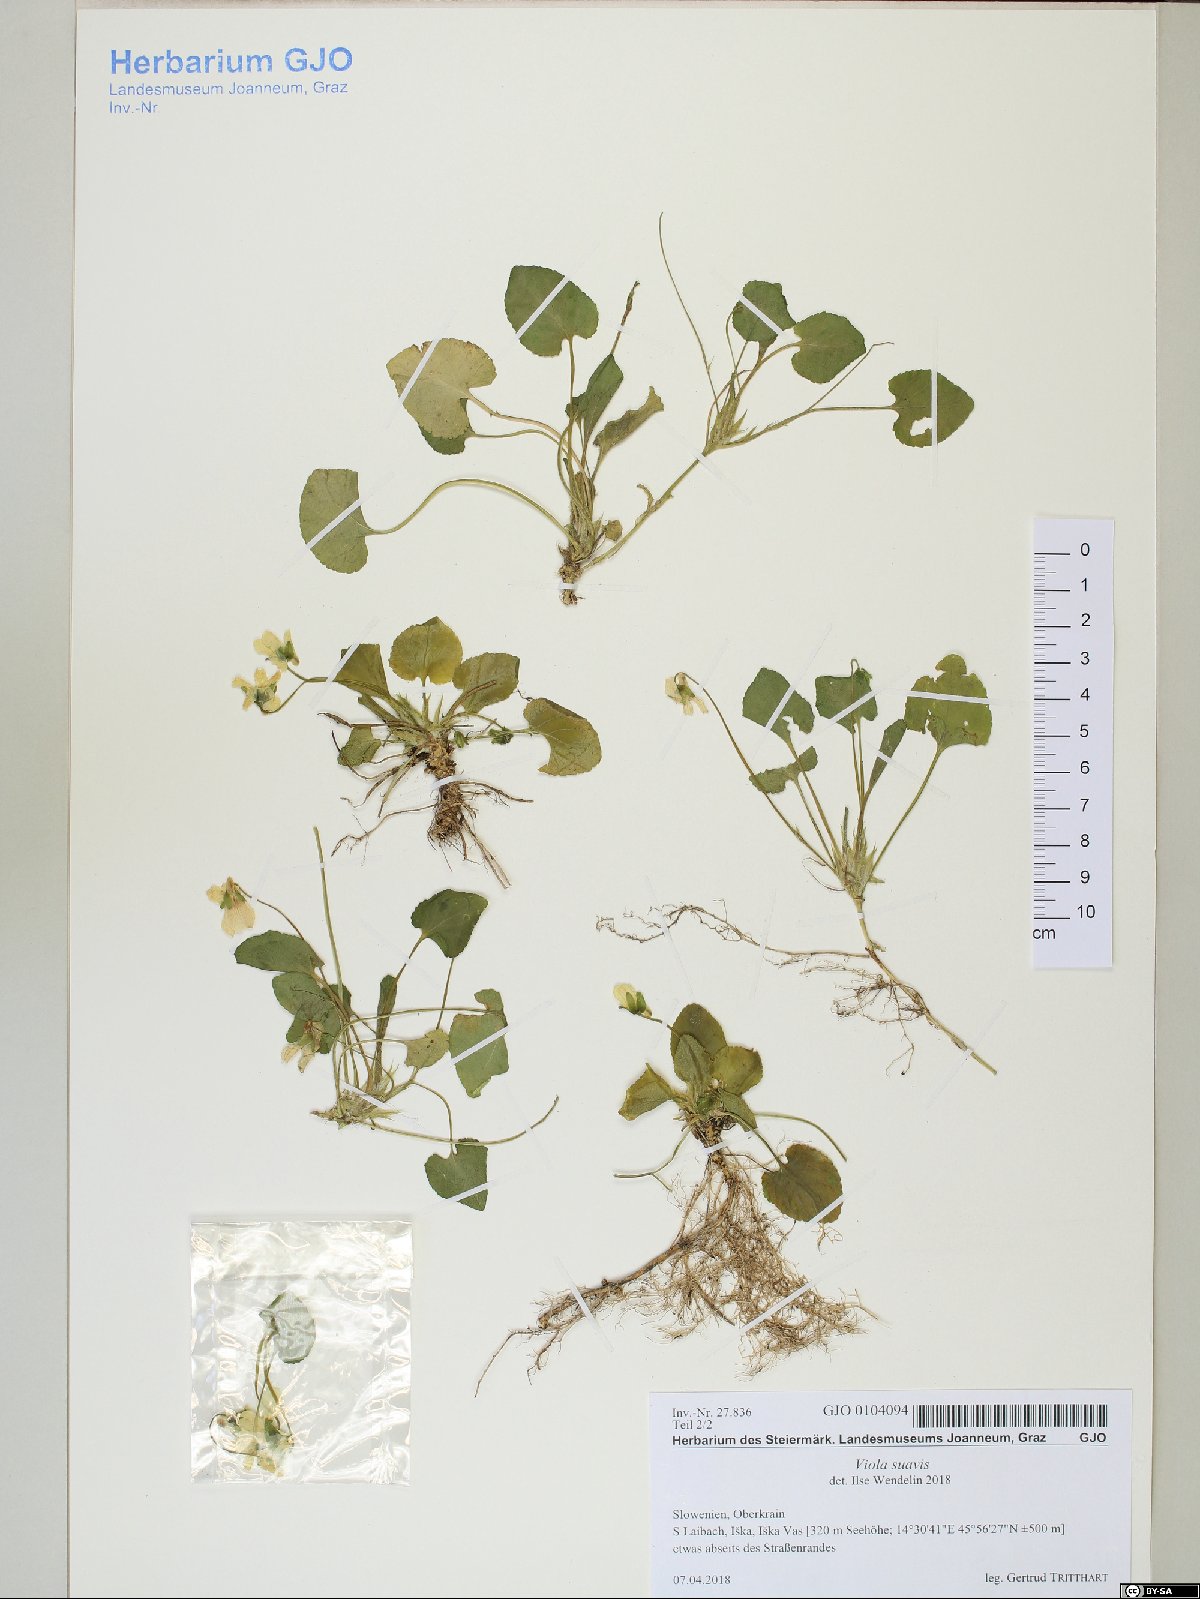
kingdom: Plantae
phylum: Tracheophyta
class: Magnoliopsida
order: Malpighiales
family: Violaceae
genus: Viola
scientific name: Viola suavis
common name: Russian violet
